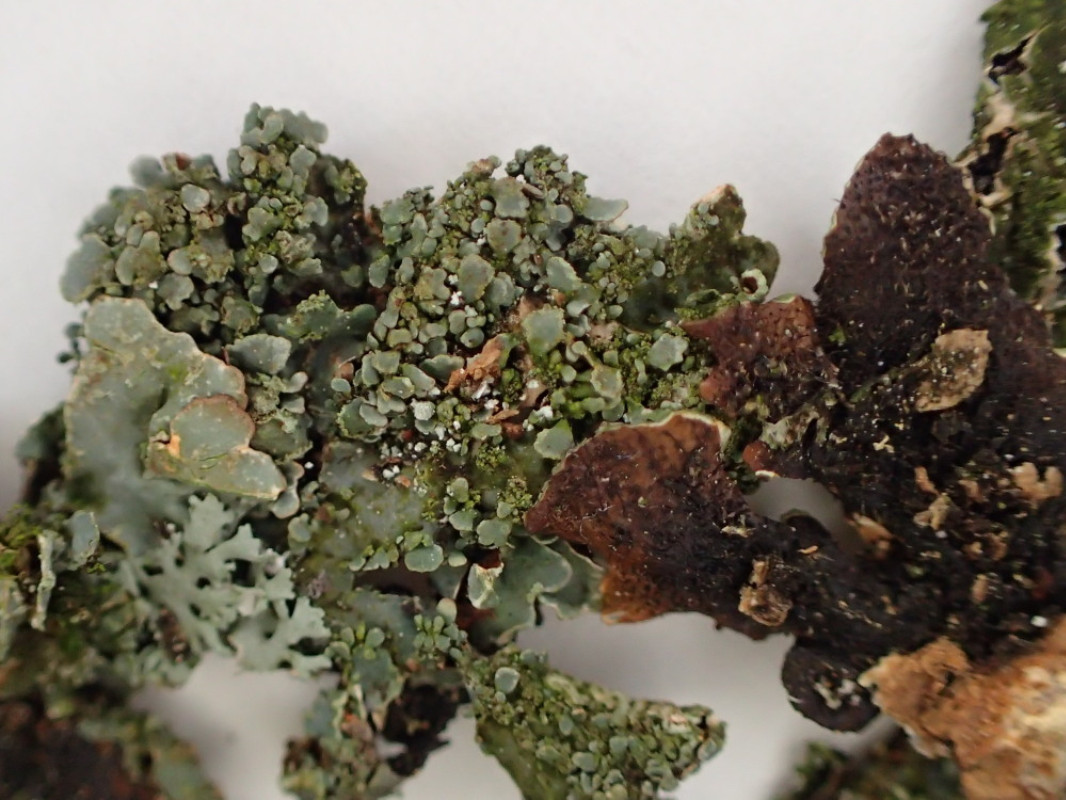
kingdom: Fungi
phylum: Ascomycota
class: Lecanoromycetes
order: Lecanorales
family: Parmeliaceae
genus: Parmelia
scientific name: Parmelia sulcata
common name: rynket skållav
